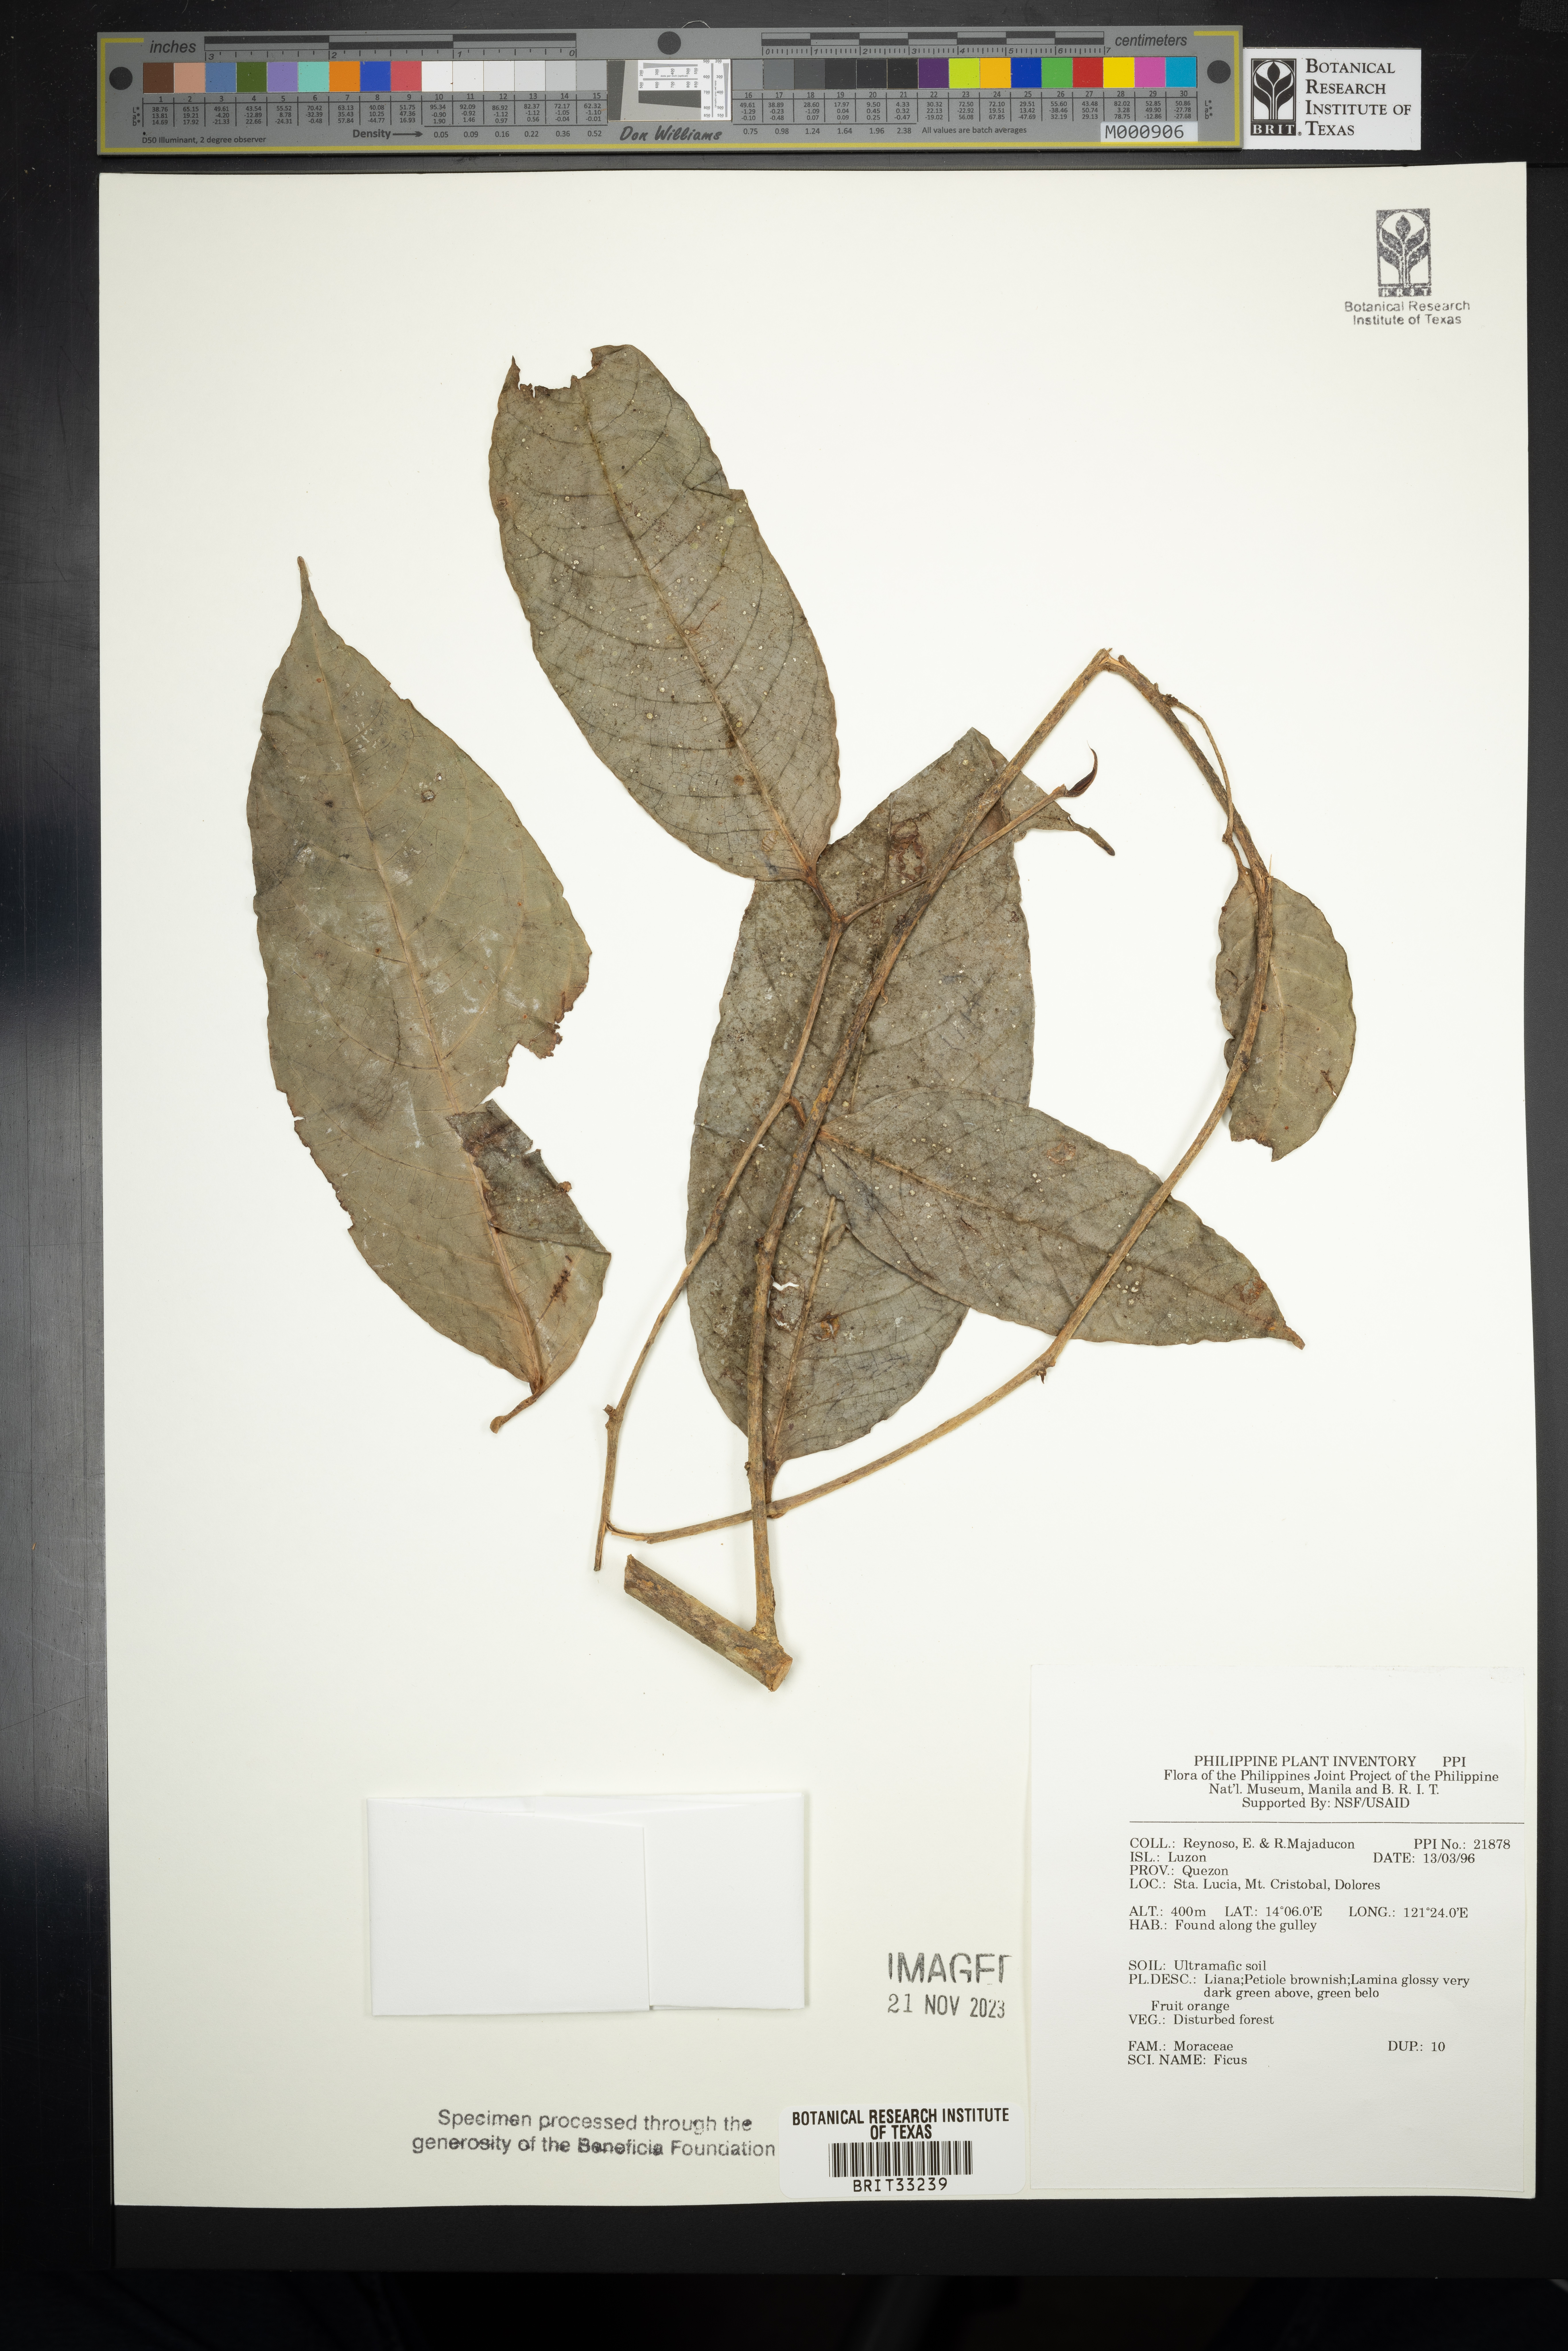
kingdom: Plantae
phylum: Tracheophyta
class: Magnoliopsida
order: Rosales
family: Moraceae
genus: Ficus
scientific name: Ficus
